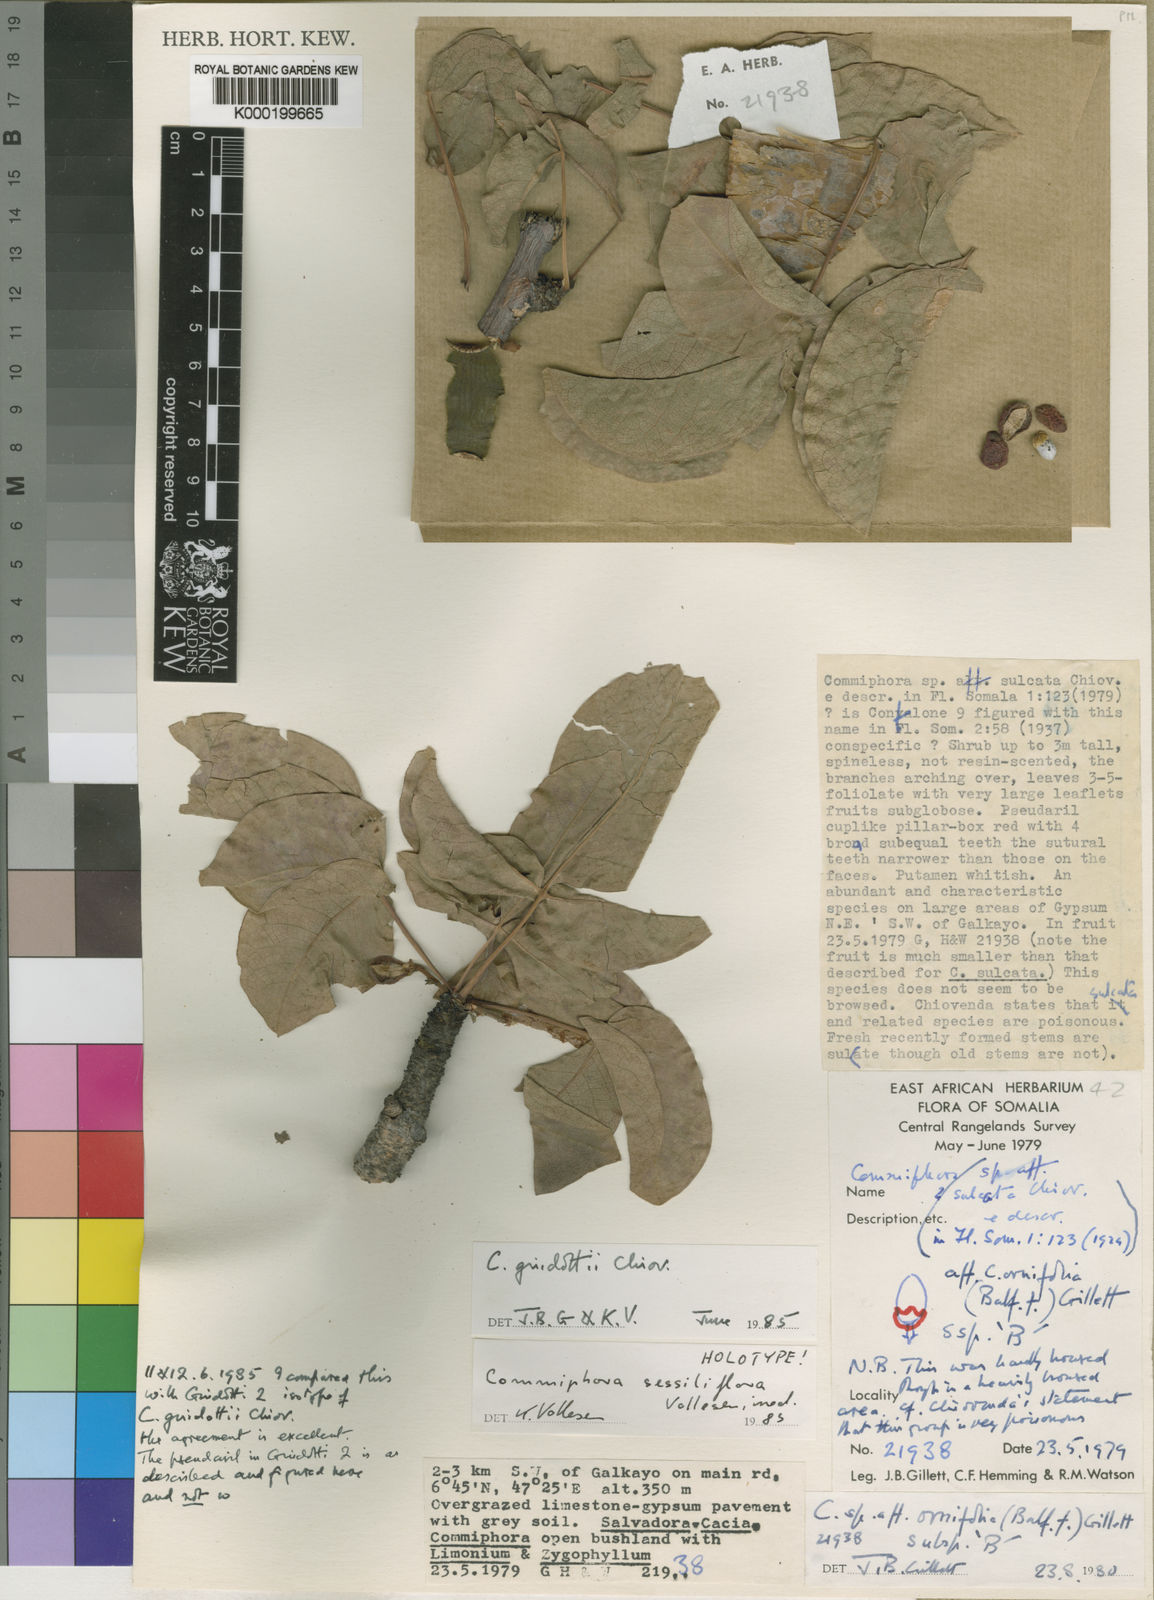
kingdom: Plantae
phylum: Tracheophyta
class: Magnoliopsida
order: Sapindales
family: Burseraceae
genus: Commiphora
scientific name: Commiphora
